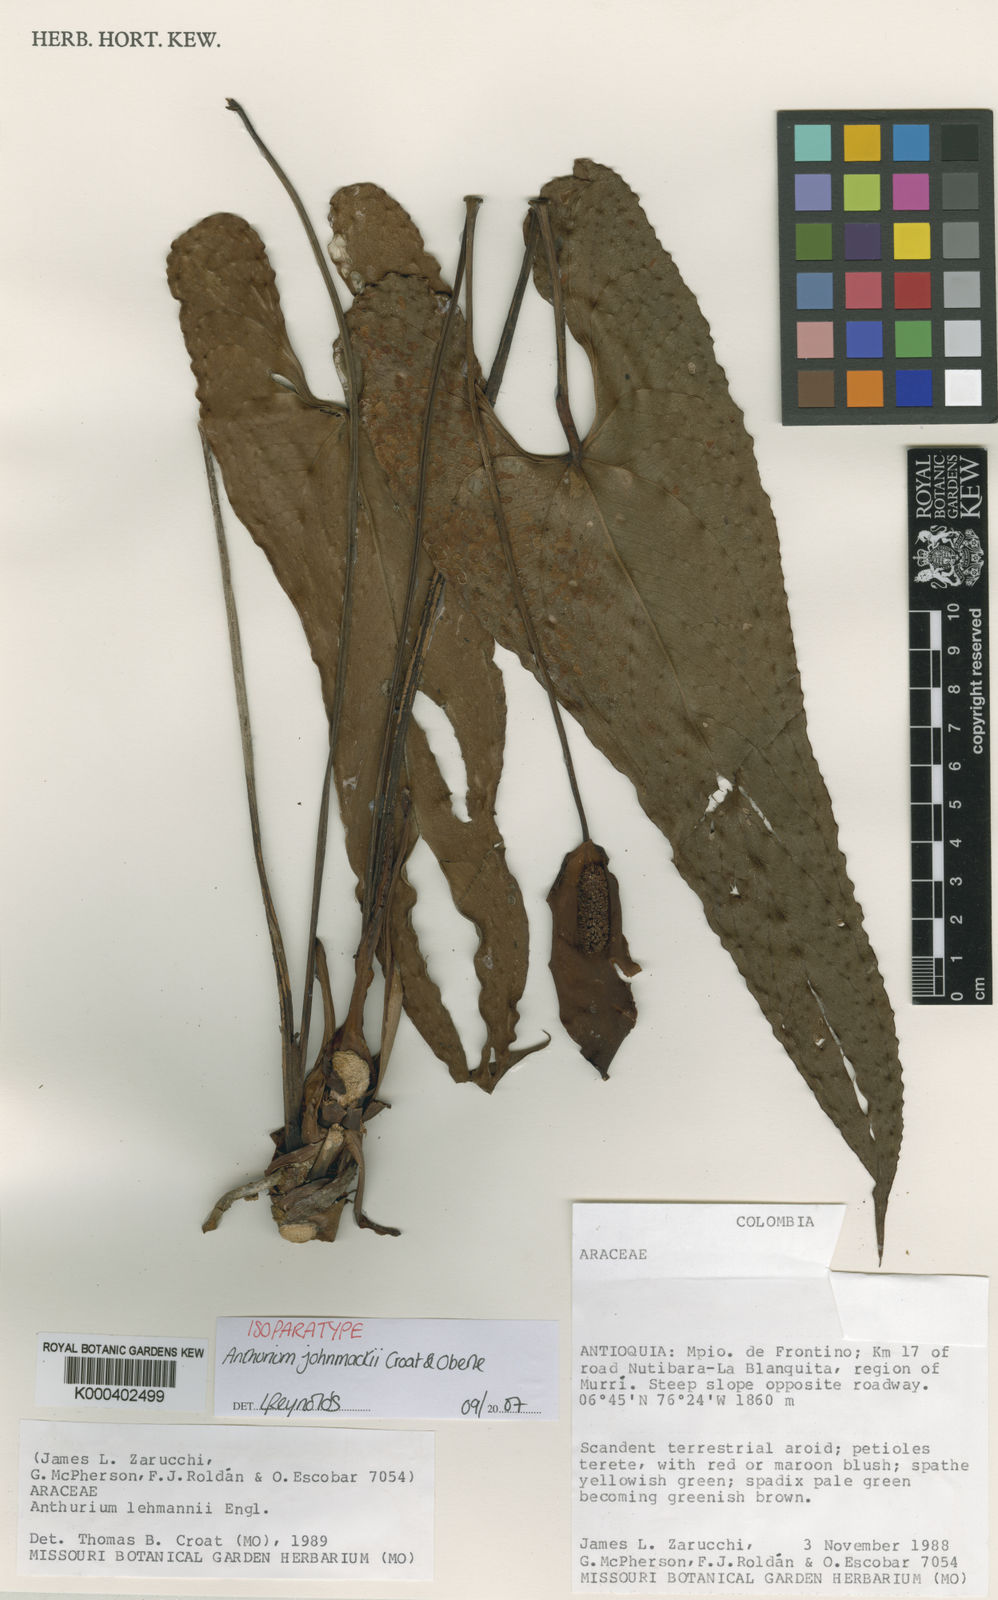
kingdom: Plantae
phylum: Tracheophyta
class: Liliopsida
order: Alismatales
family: Araceae
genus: Anthurium
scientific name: Anthurium johnmackii
